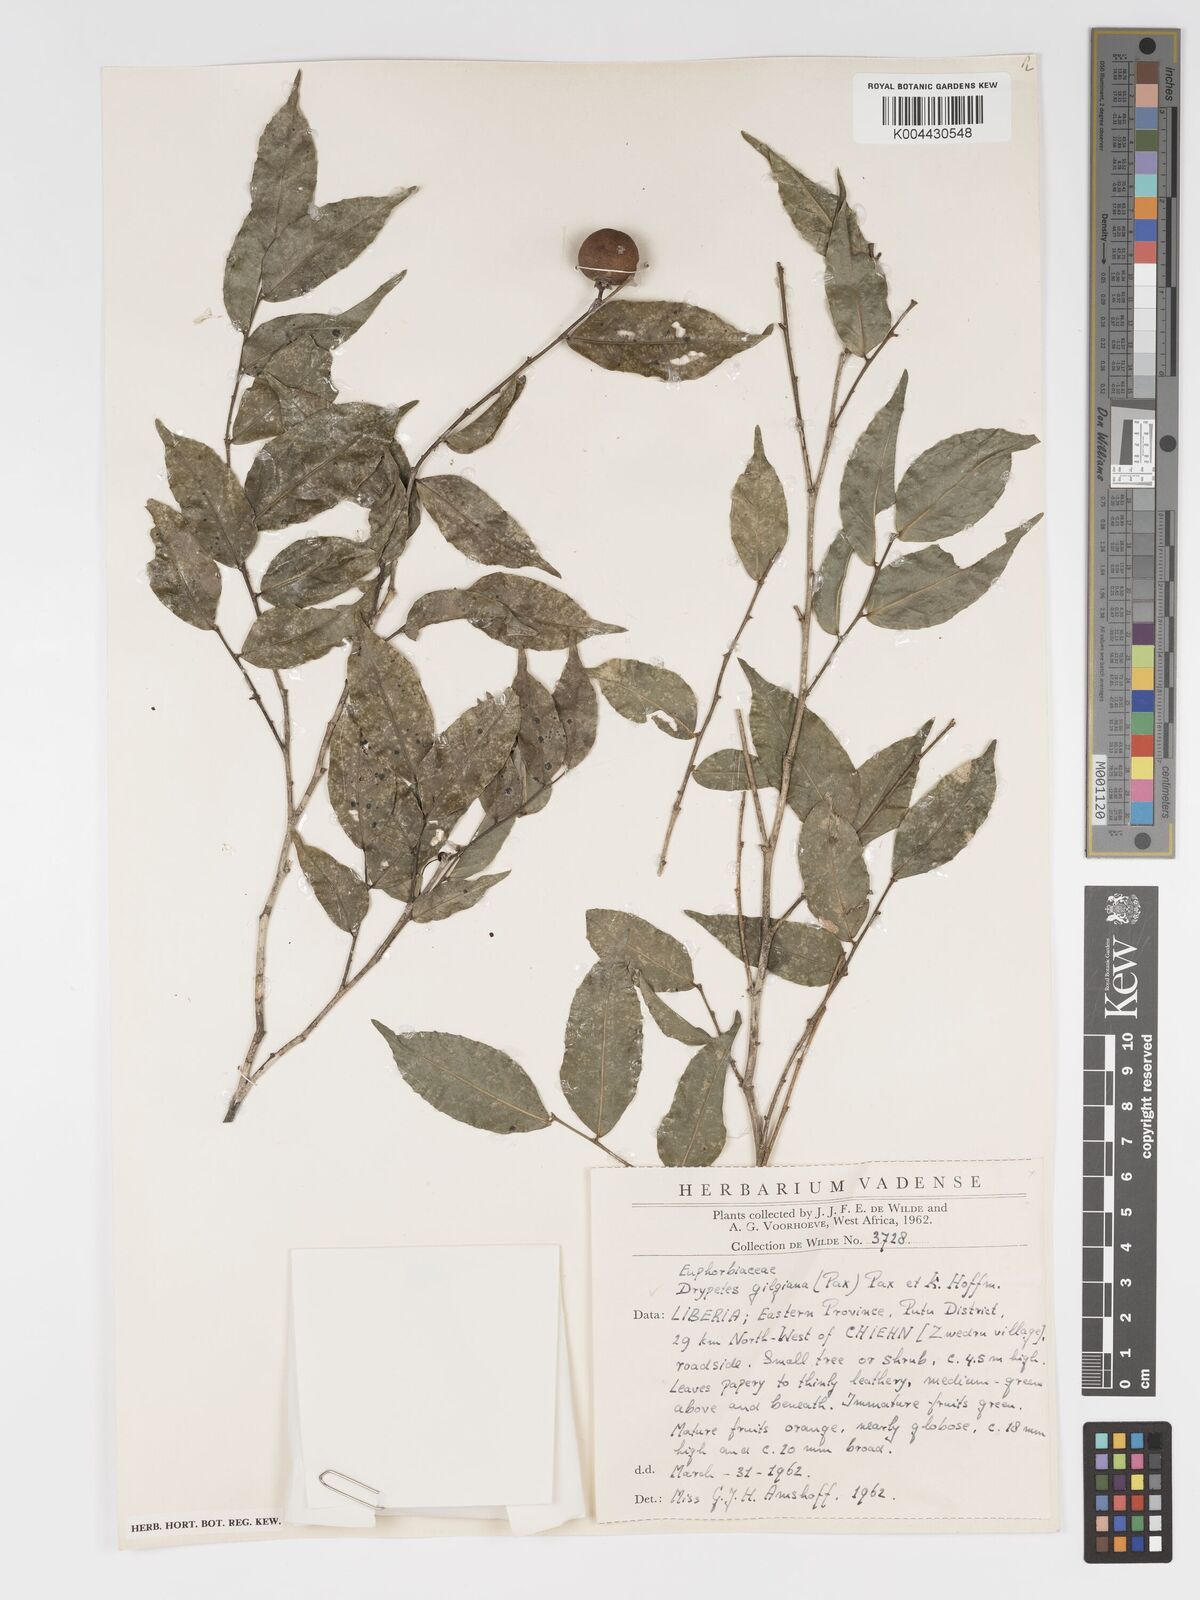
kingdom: Plantae
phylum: Tracheophyta
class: Magnoliopsida
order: Malpighiales
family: Putranjivaceae
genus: Drypetes
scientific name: Drypetes gilgiana
